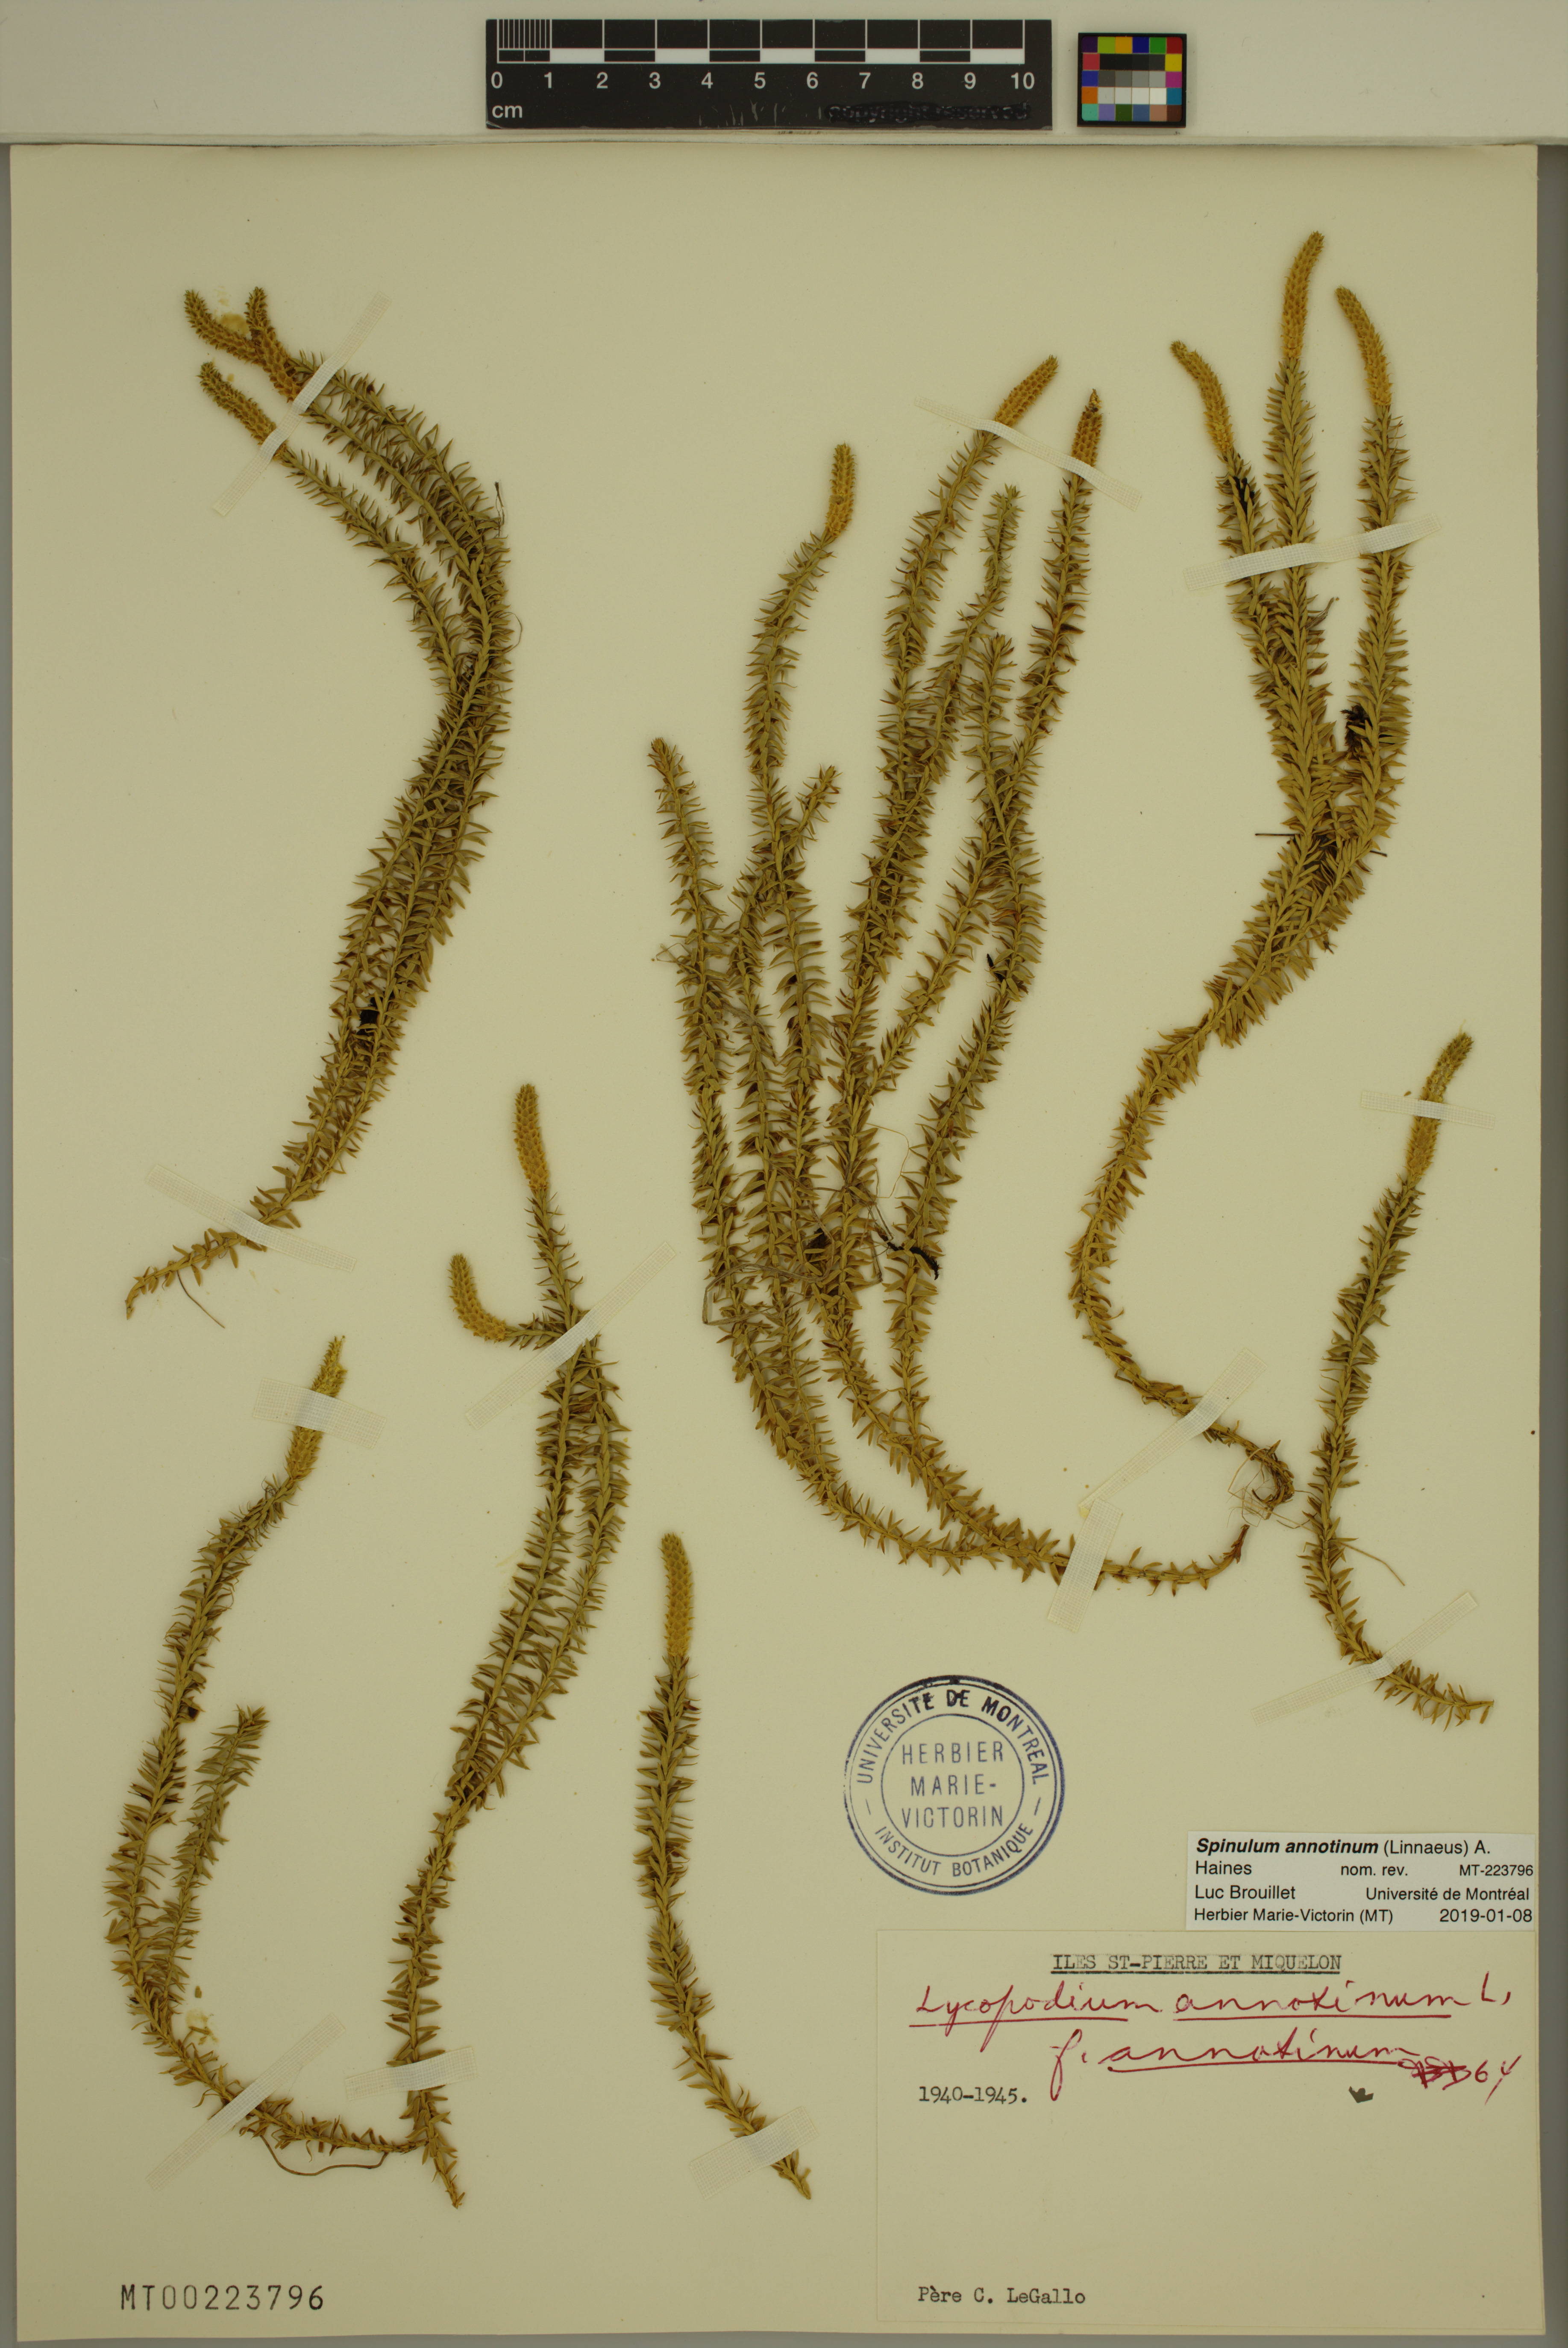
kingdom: Plantae
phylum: Tracheophyta
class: Lycopodiopsida
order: Lycopodiales
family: Lycopodiaceae
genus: Spinulum
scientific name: Spinulum annotinum
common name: Interrupted club-moss
